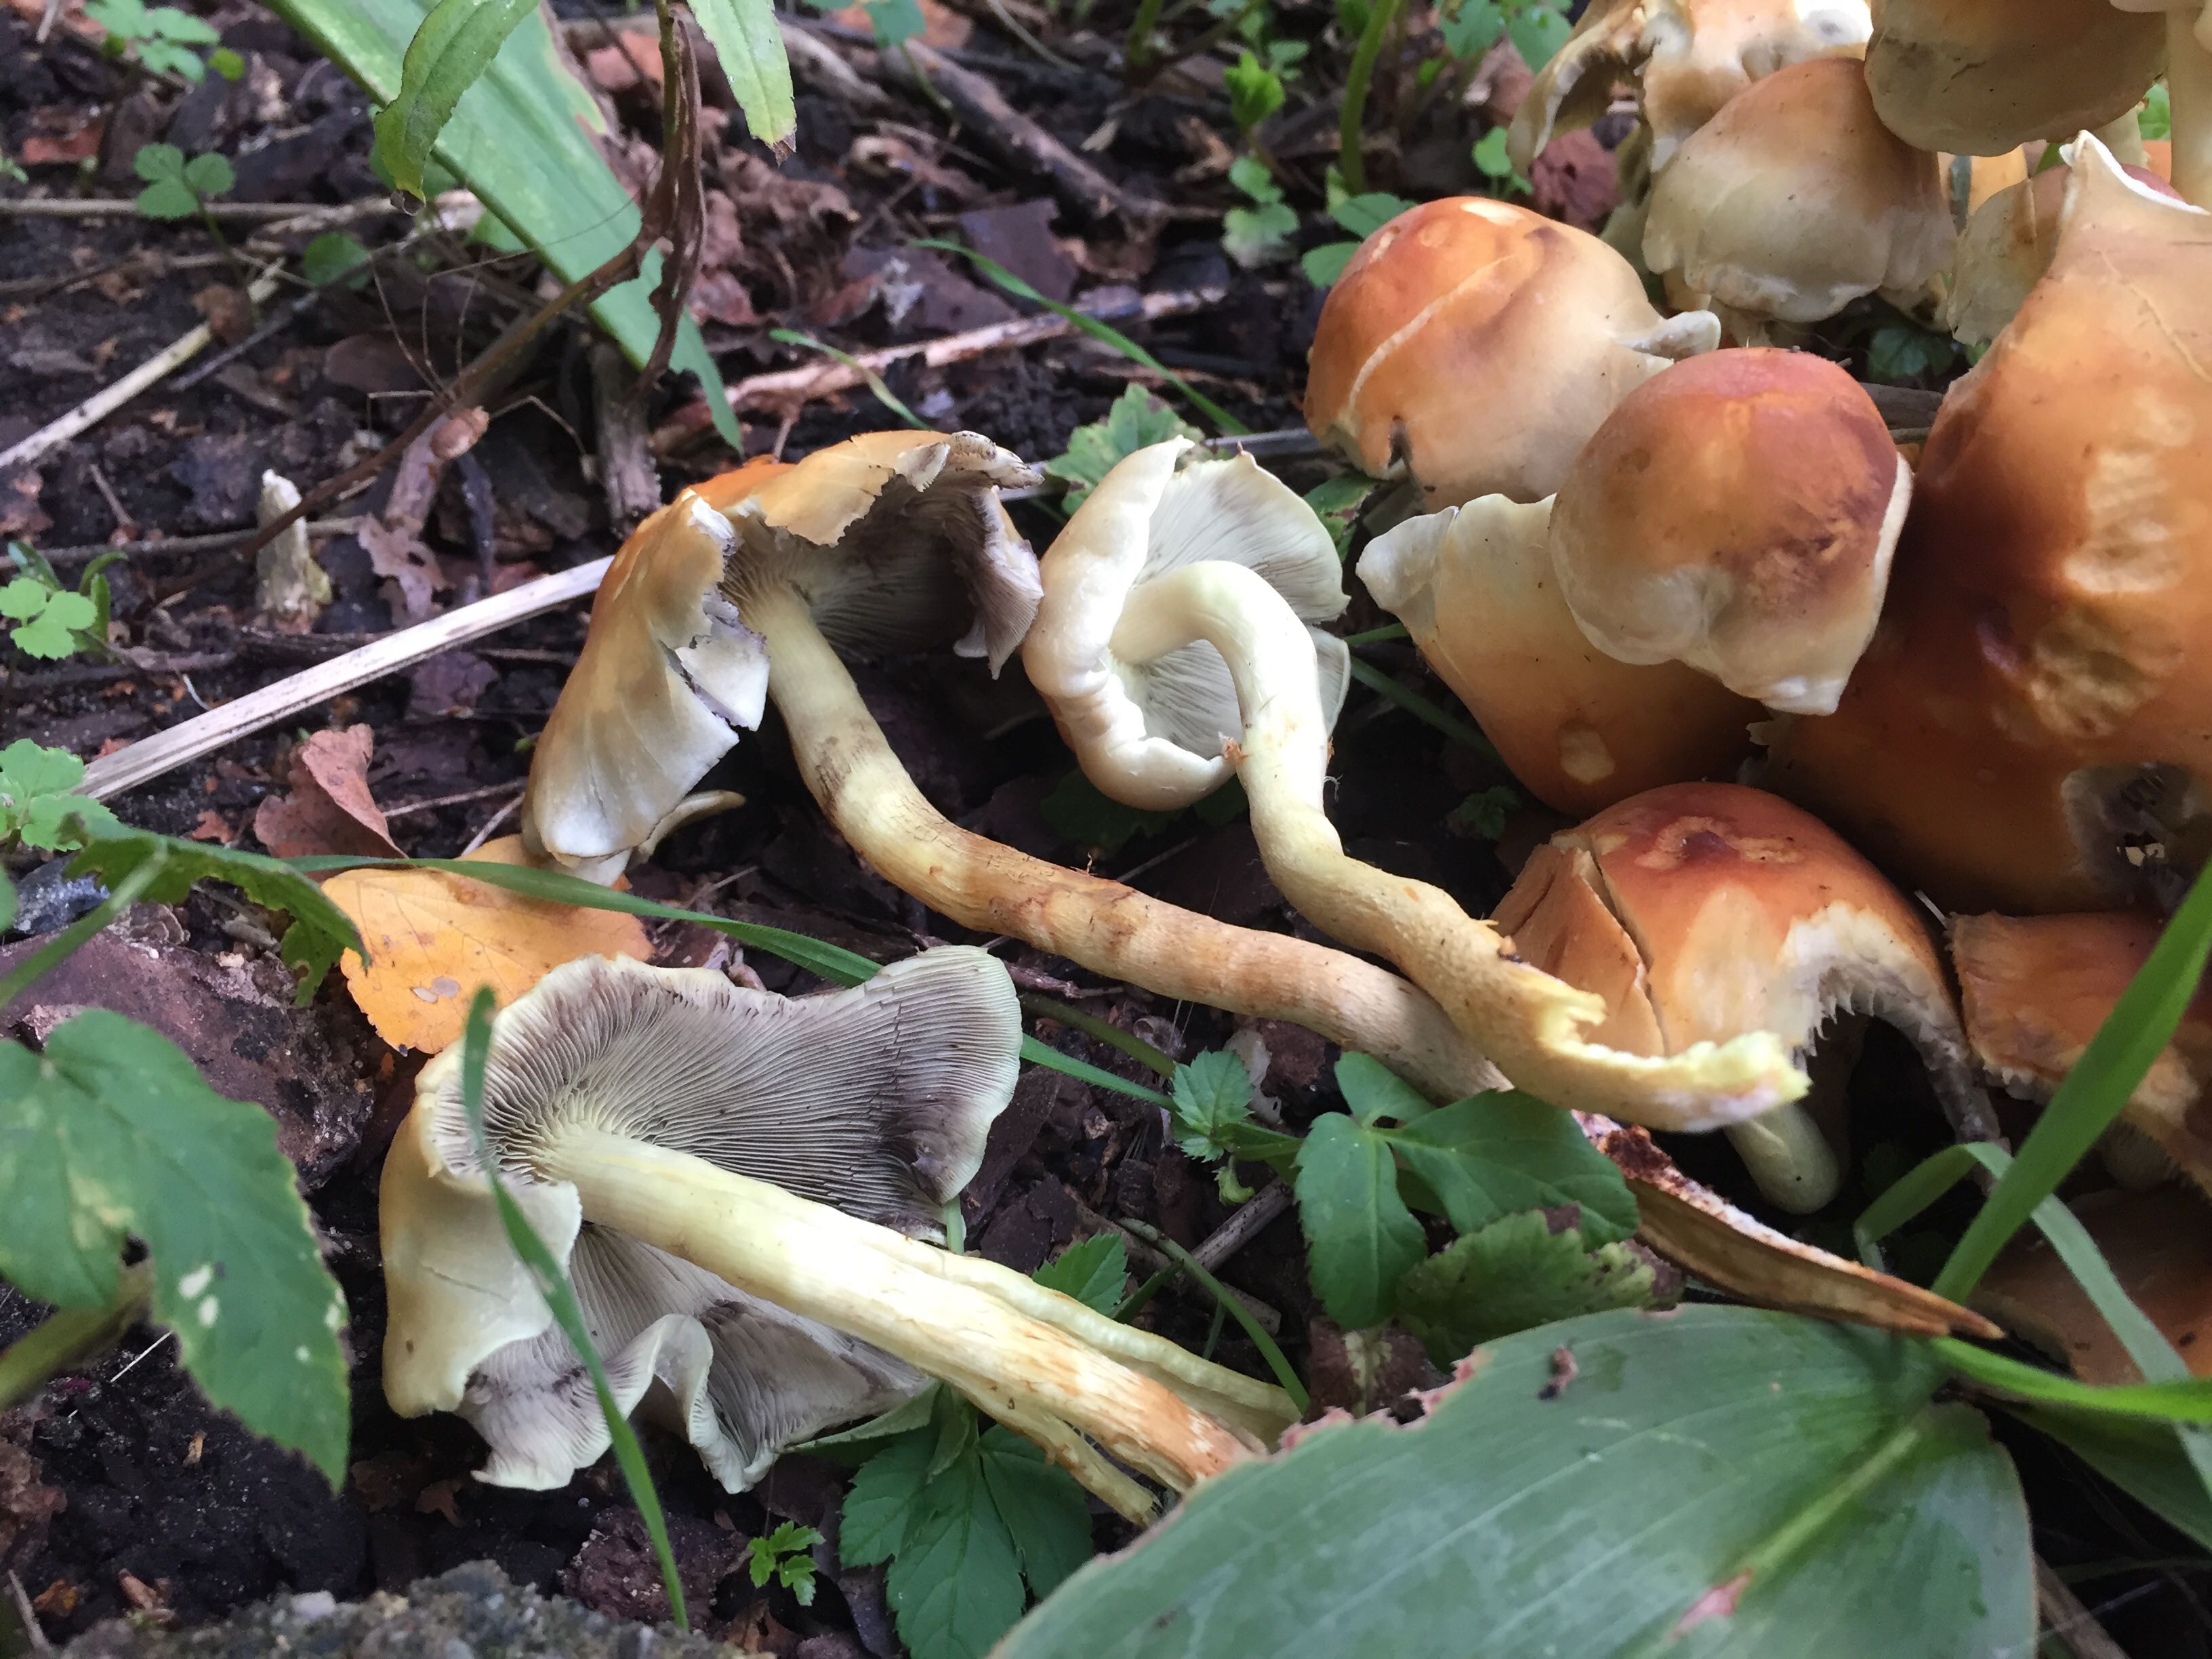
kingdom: Fungi
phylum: Basidiomycota
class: Agaricomycetes
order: Agaricales
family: Strophariaceae
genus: Hypholoma
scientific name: Hypholoma
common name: svovlhat
